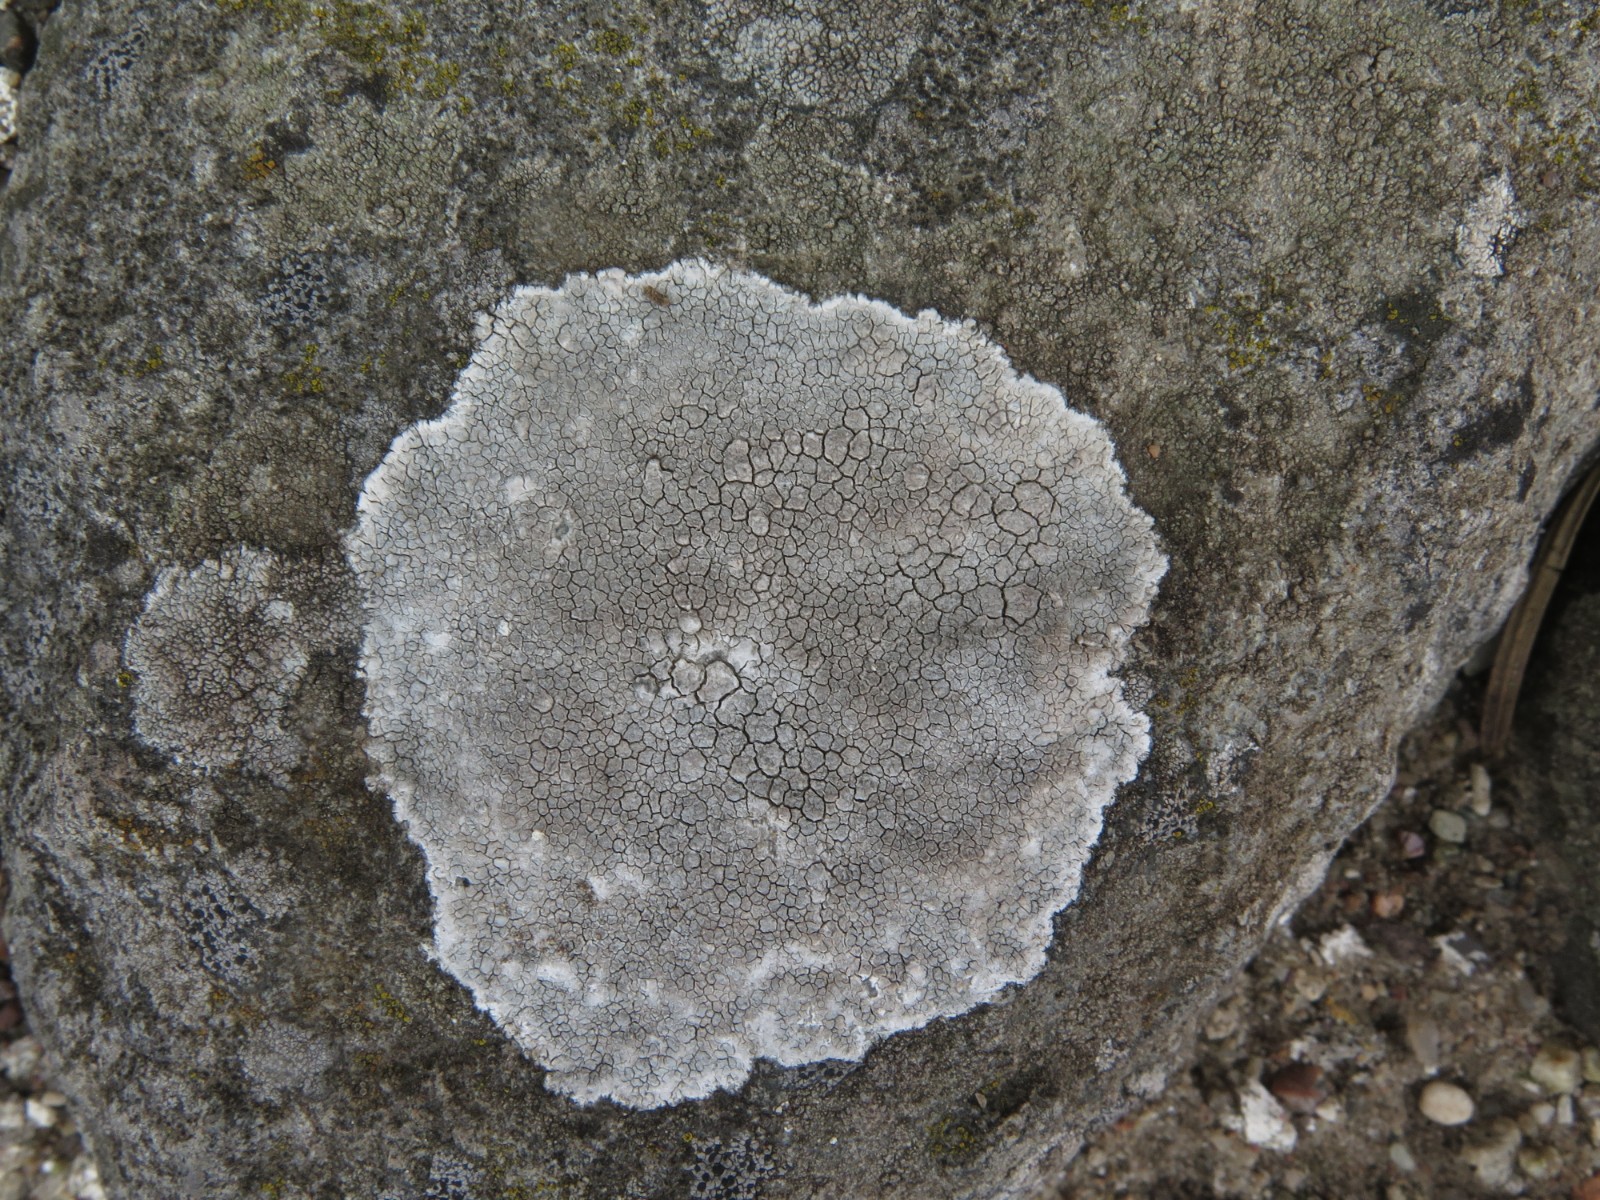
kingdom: Fungi
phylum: Ascomycota
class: Lecanoromycetes
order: Lecanorales
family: Lecanoraceae
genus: Glaucomaria
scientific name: Glaucomaria rupicola
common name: stengærde-kantskivelav
